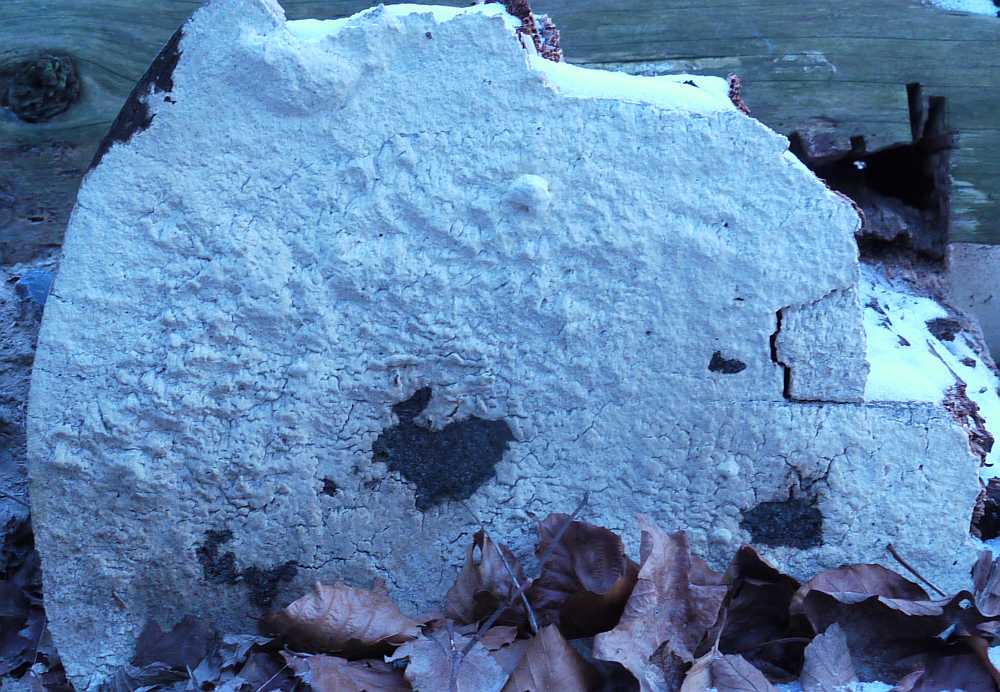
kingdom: Fungi
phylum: Basidiomycota
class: Agaricomycetes
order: Polyporales
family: Fomitopsidaceae
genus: Daedalea
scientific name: Daedalea xantha
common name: gul sejporesvamp
